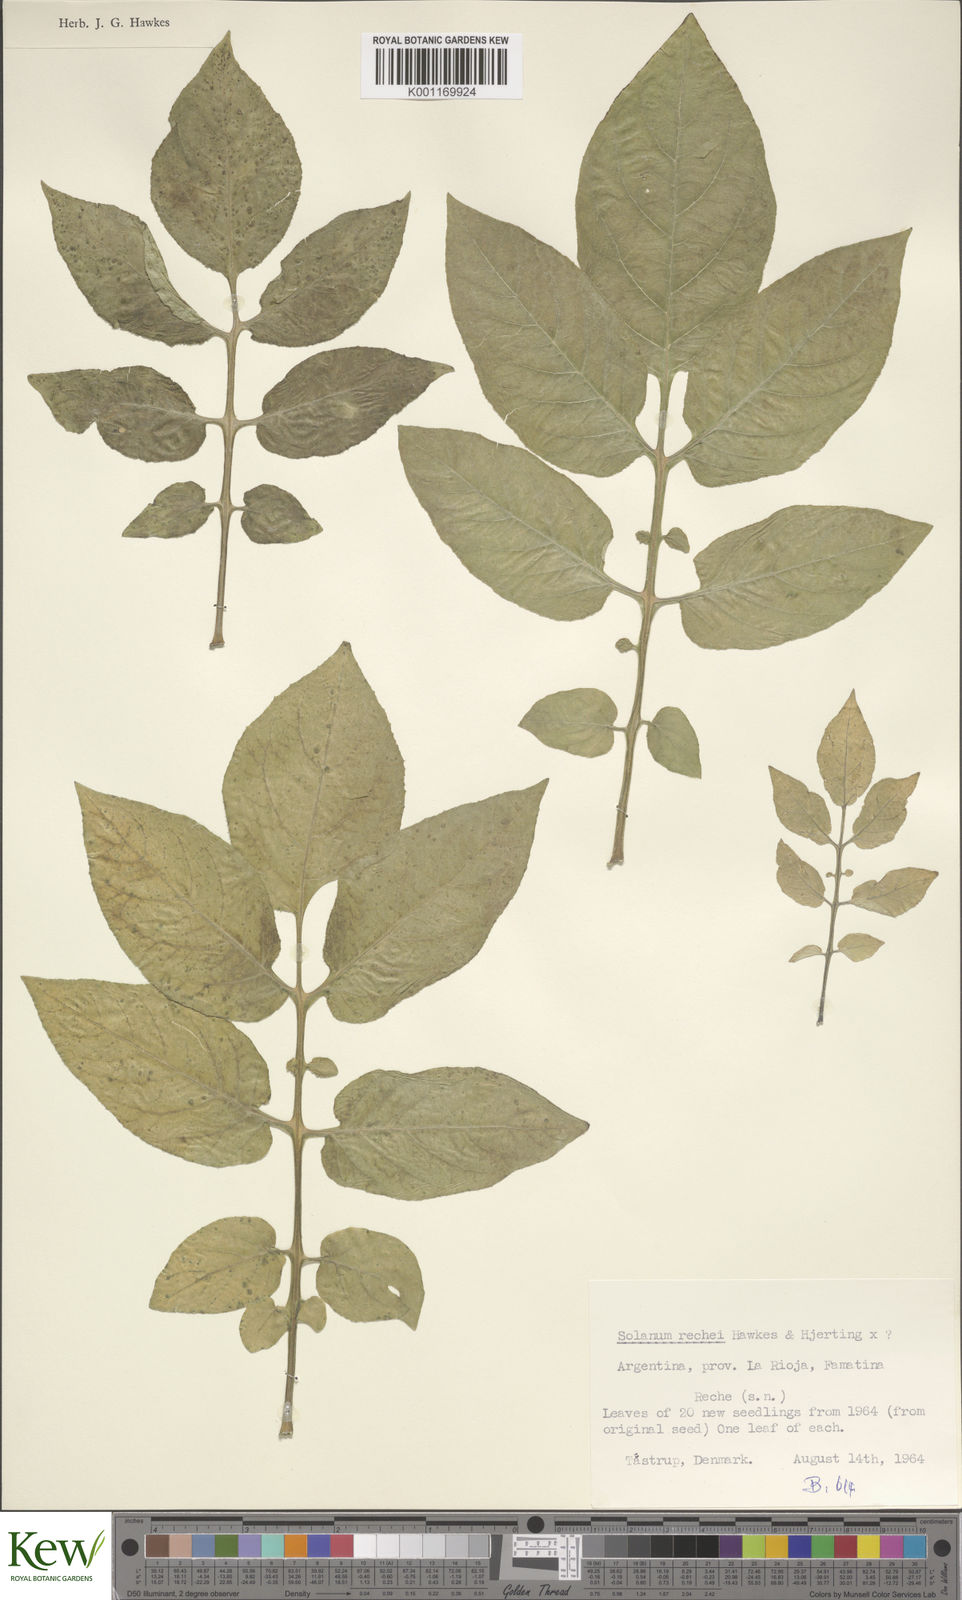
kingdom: Plantae
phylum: Tracheophyta
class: Magnoliopsida
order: Solanales
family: Solanaceae
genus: Solanum
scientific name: Solanum rechei
